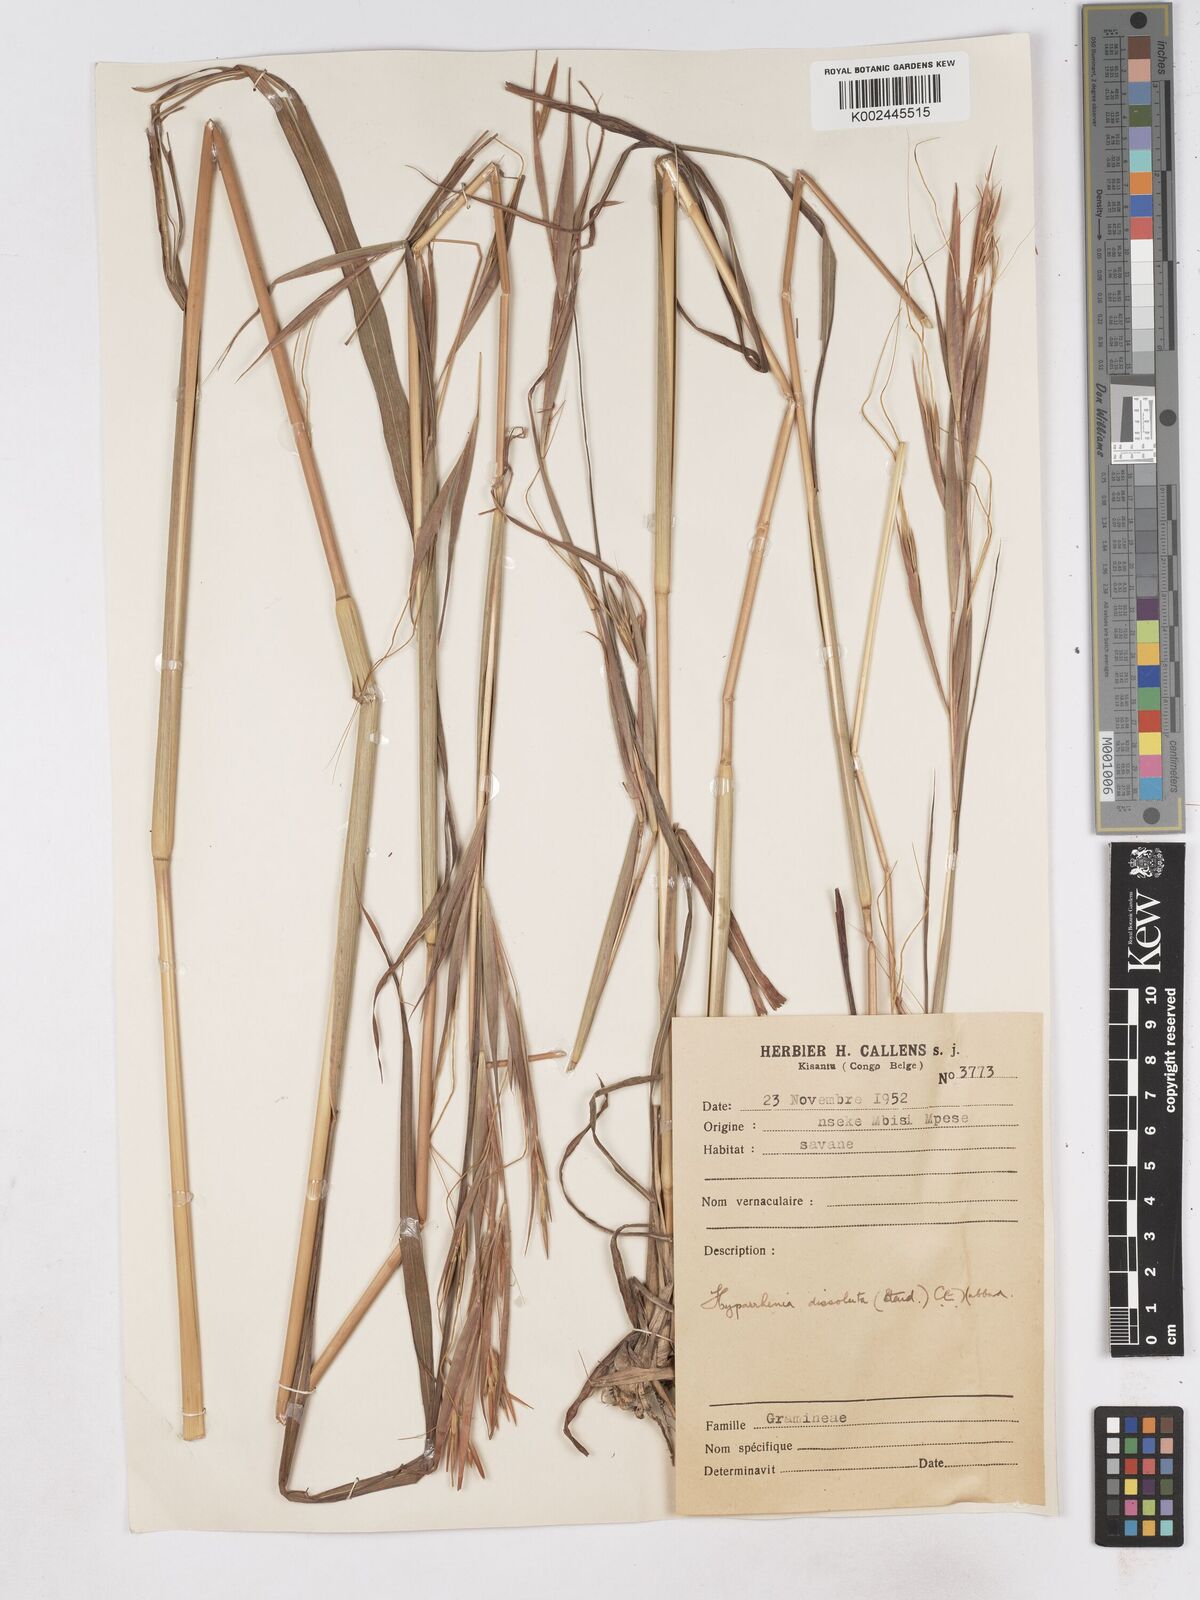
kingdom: Plantae
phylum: Tracheophyta
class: Liliopsida
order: Poales
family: Poaceae
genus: Hyperthelia
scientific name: Hyperthelia dissoluta
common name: Yellow thatching grass
